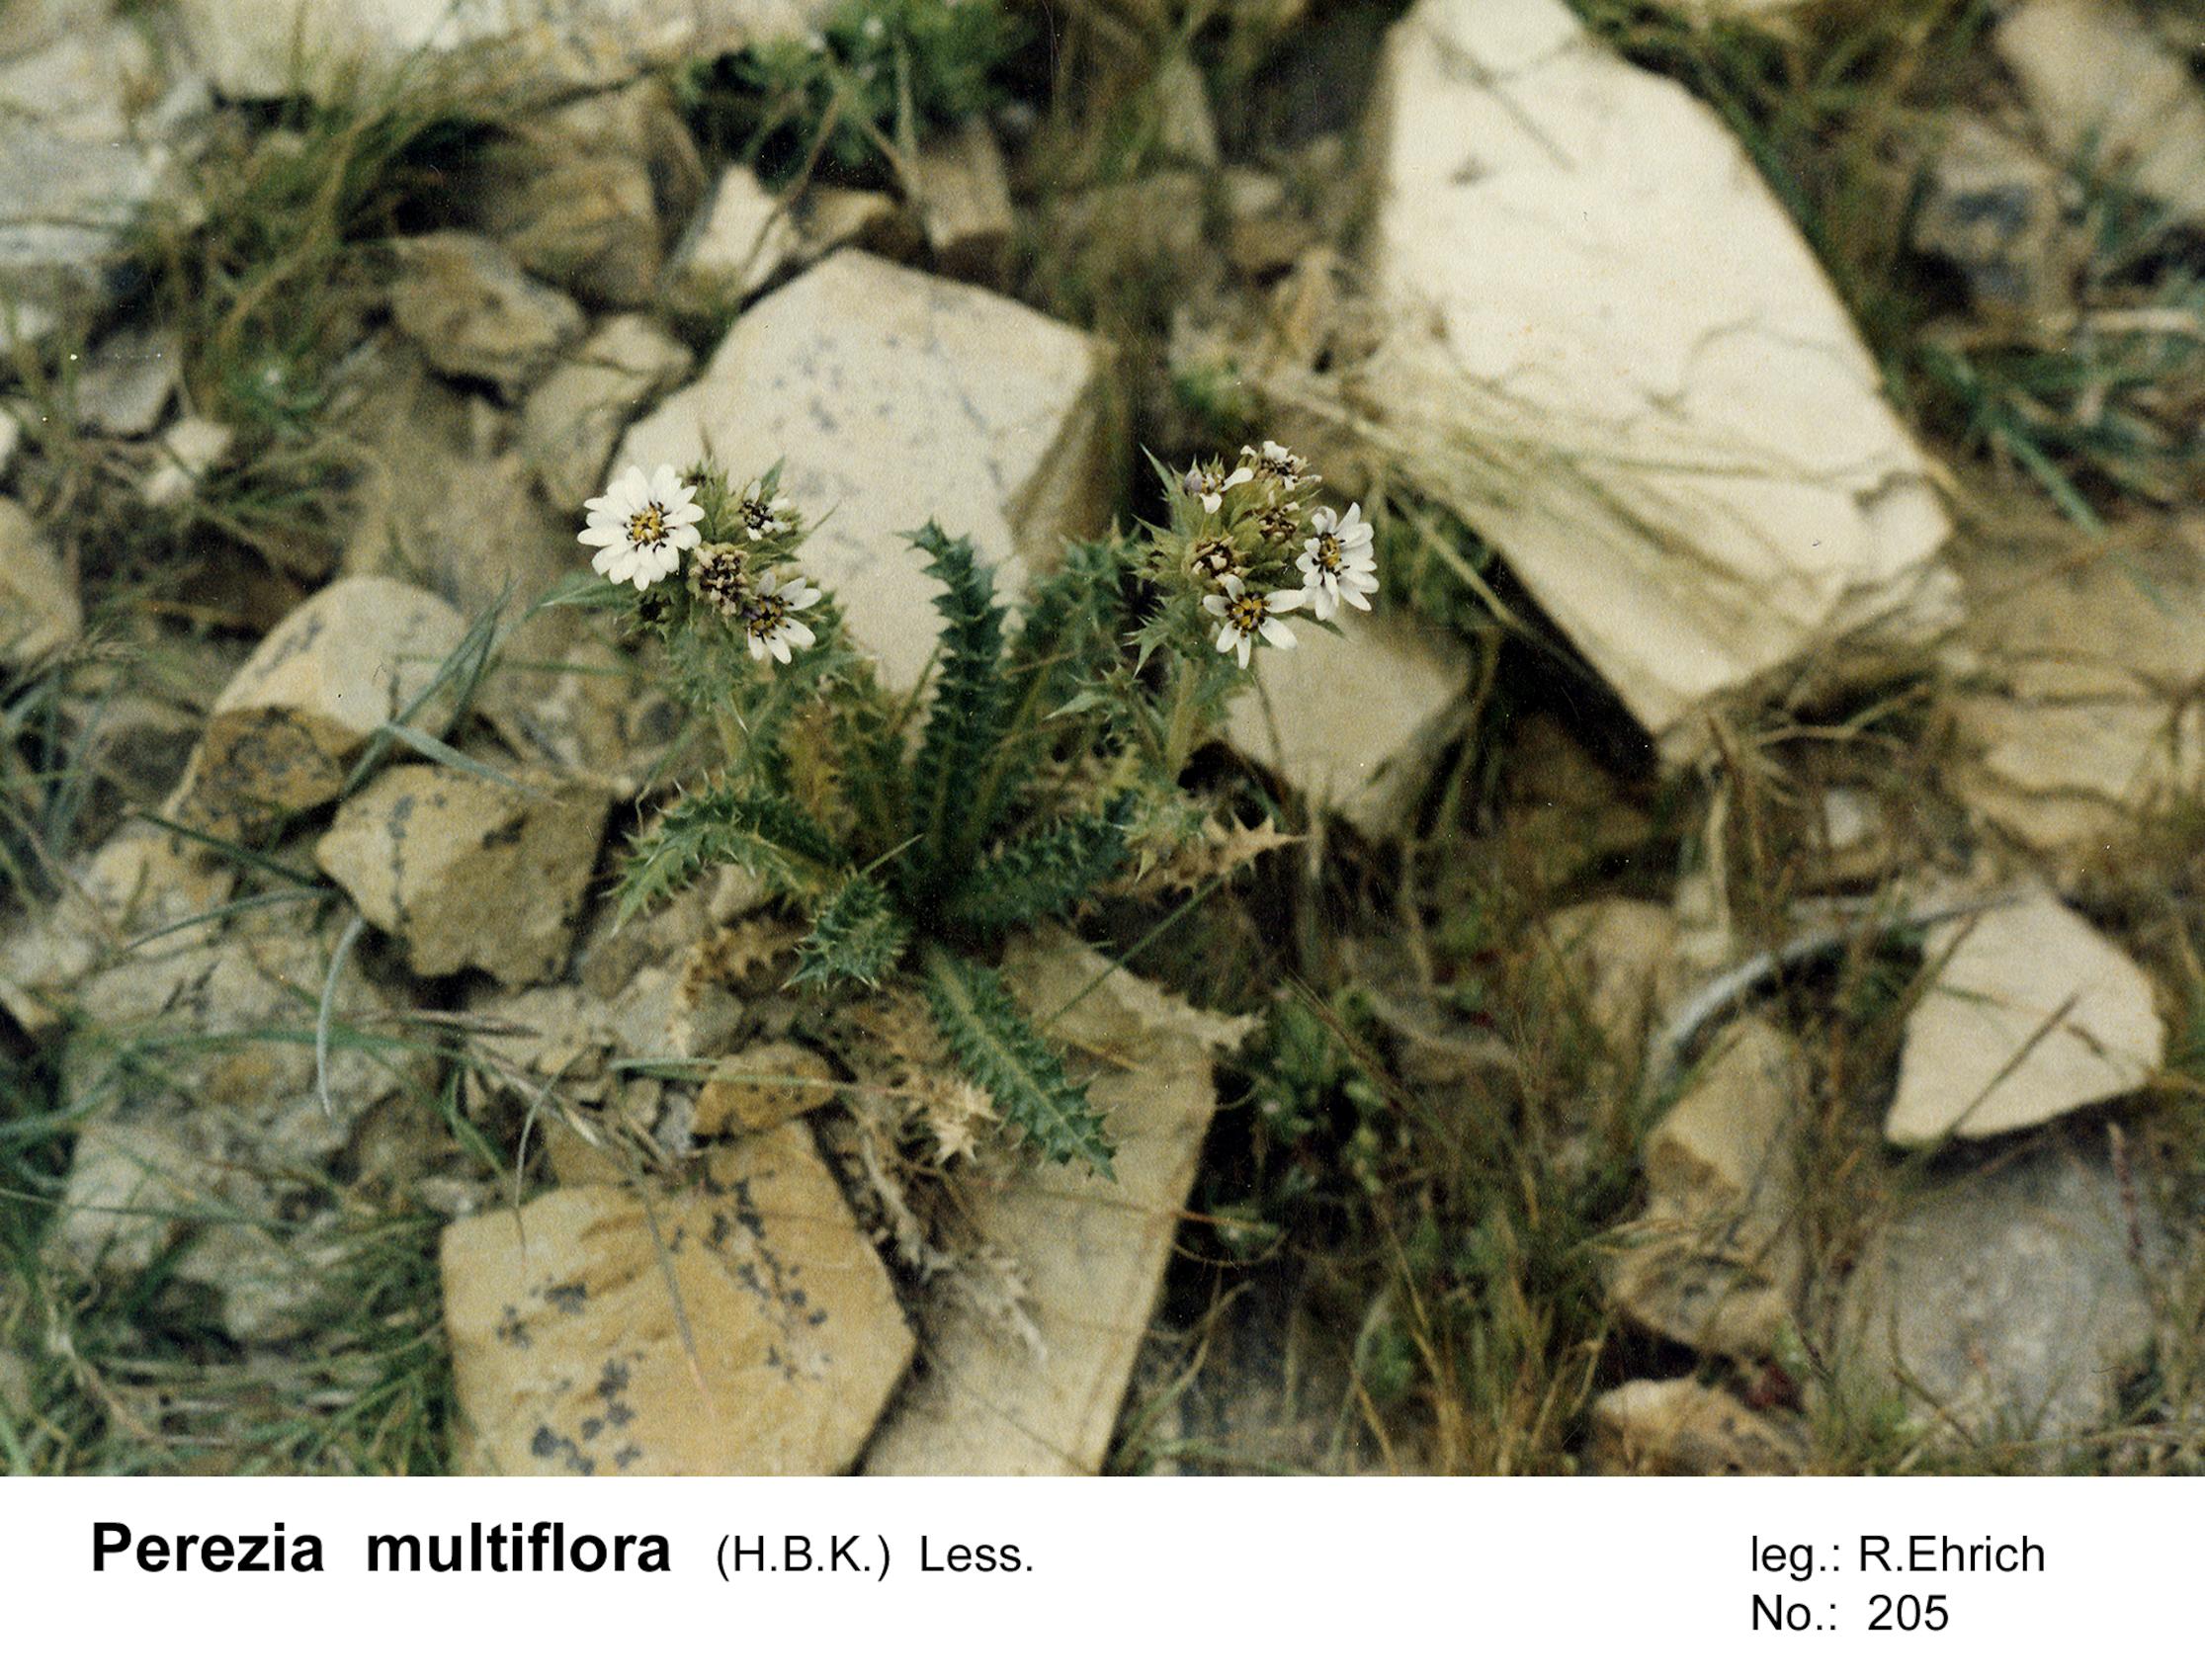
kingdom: Plantae
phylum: Tracheophyta
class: Magnoliopsida
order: Asterales
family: Asteraceae
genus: Perezia
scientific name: Perezia multiflora
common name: Perezia
